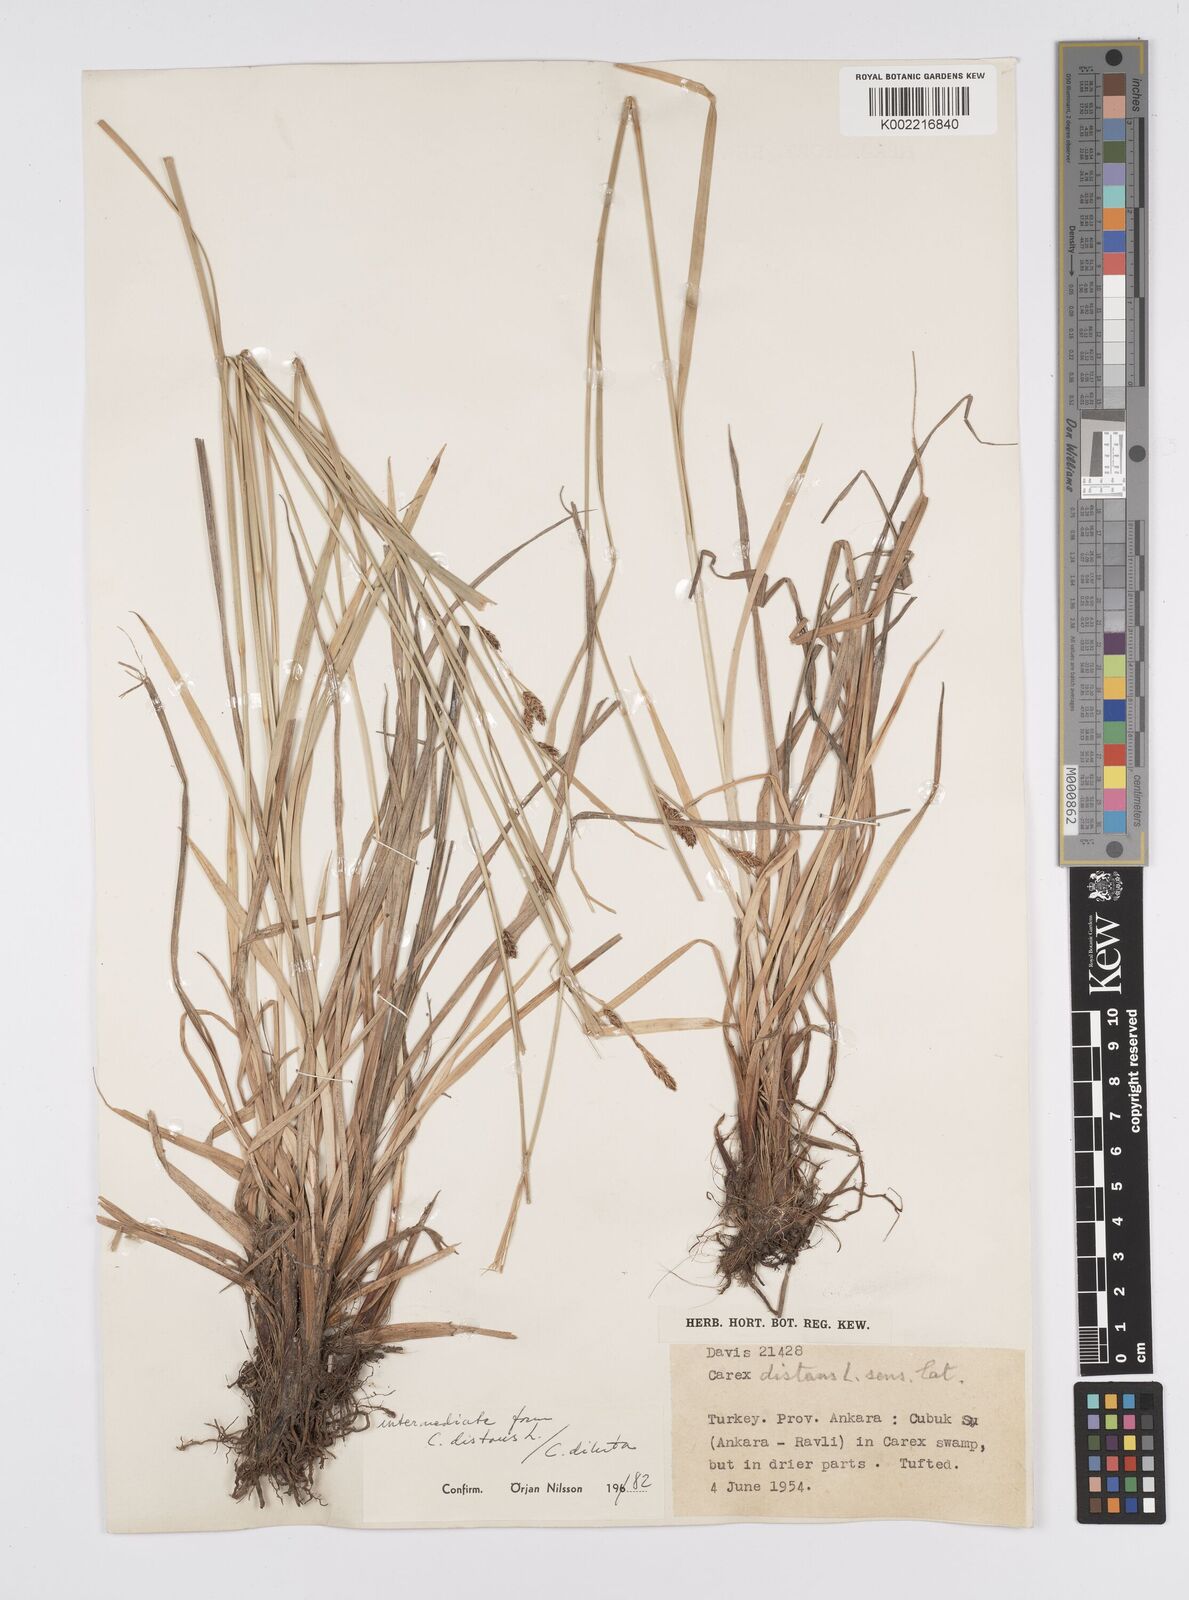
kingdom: Plantae
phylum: Tracheophyta
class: Liliopsida
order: Poales
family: Cyperaceae
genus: Carex
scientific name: Carex diluta
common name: Sedge
